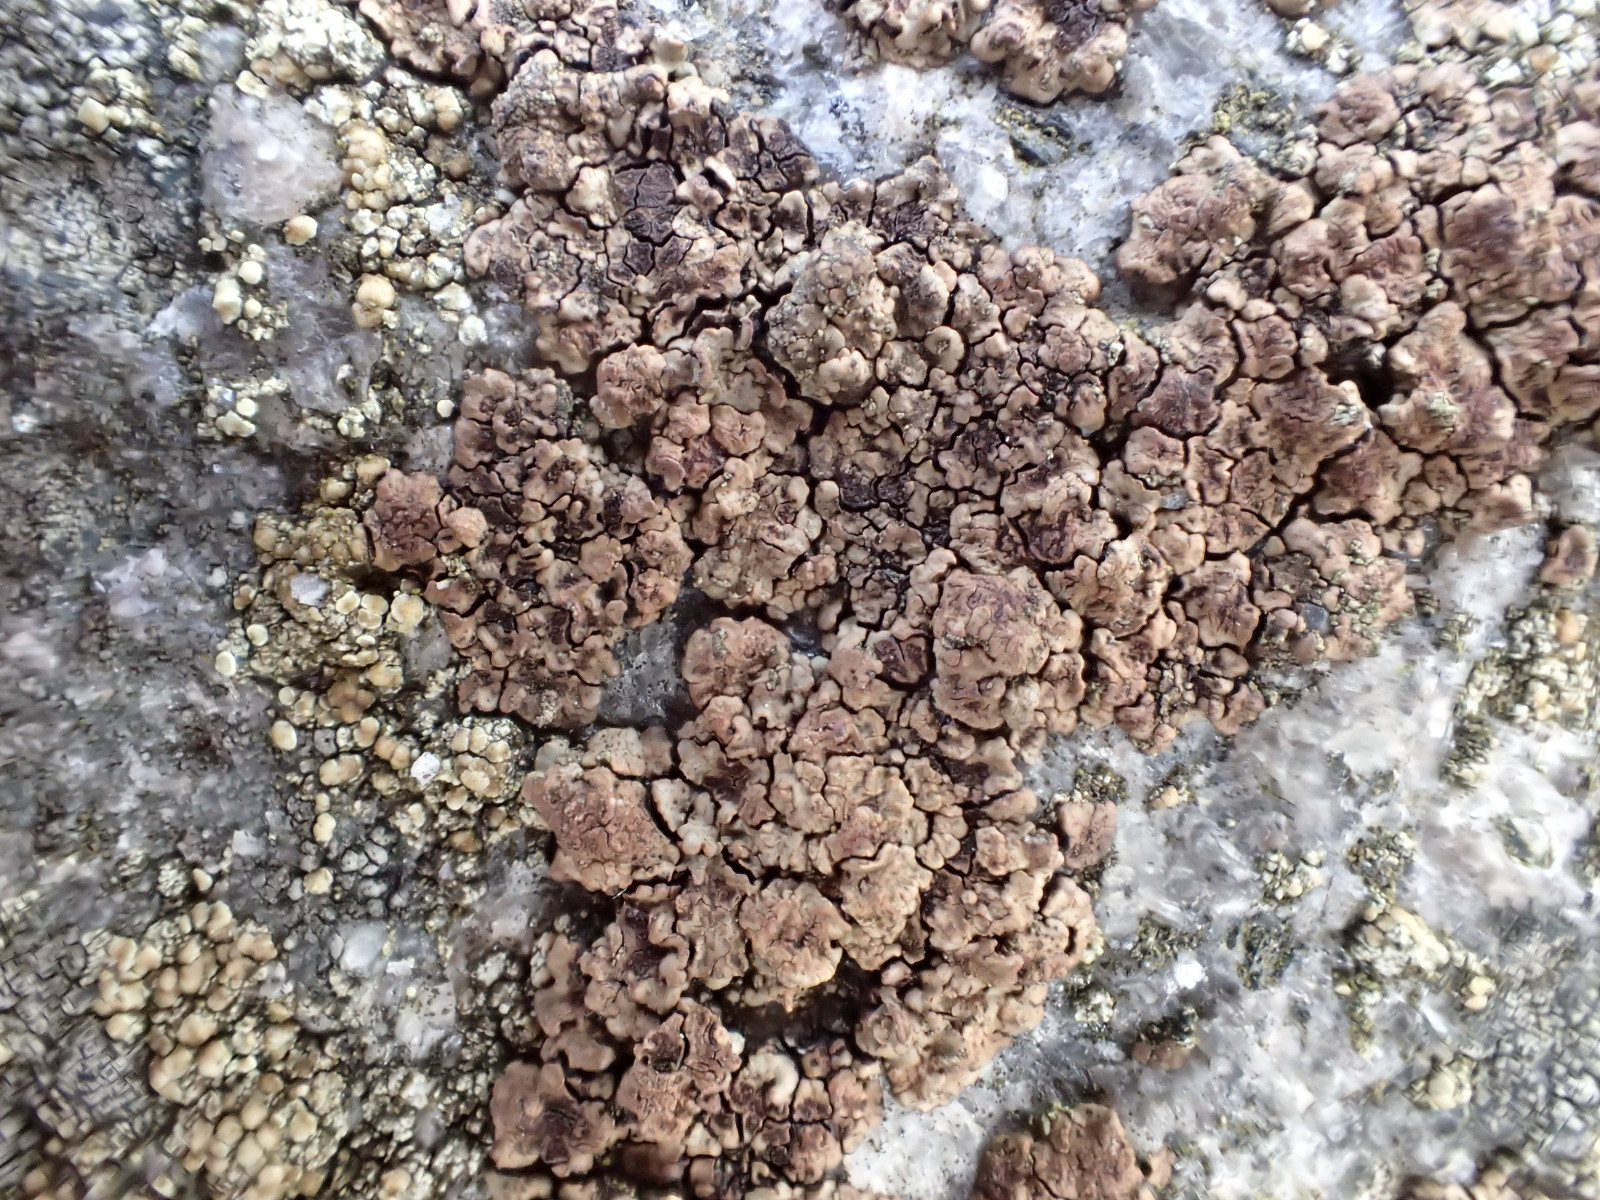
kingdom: Fungi
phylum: Ascomycota
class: Lecanoromycetes
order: Acarosporales
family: Acarosporaceae
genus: Acarospora
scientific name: Acarospora fuscata
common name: brun småsporelav
